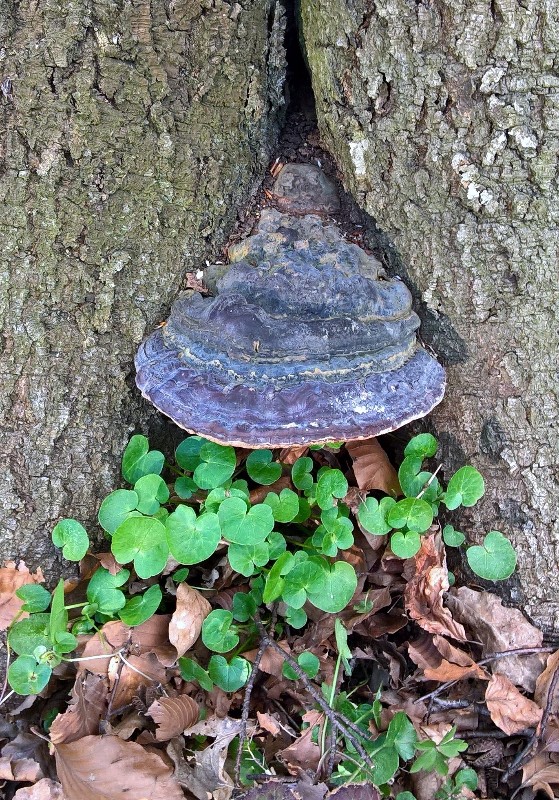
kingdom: Fungi
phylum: Basidiomycota
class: Agaricomycetes
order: Polyporales
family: Polyporaceae
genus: Ganoderma
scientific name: Ganoderma pfeifferi
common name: kobberrød lakporesvamp
